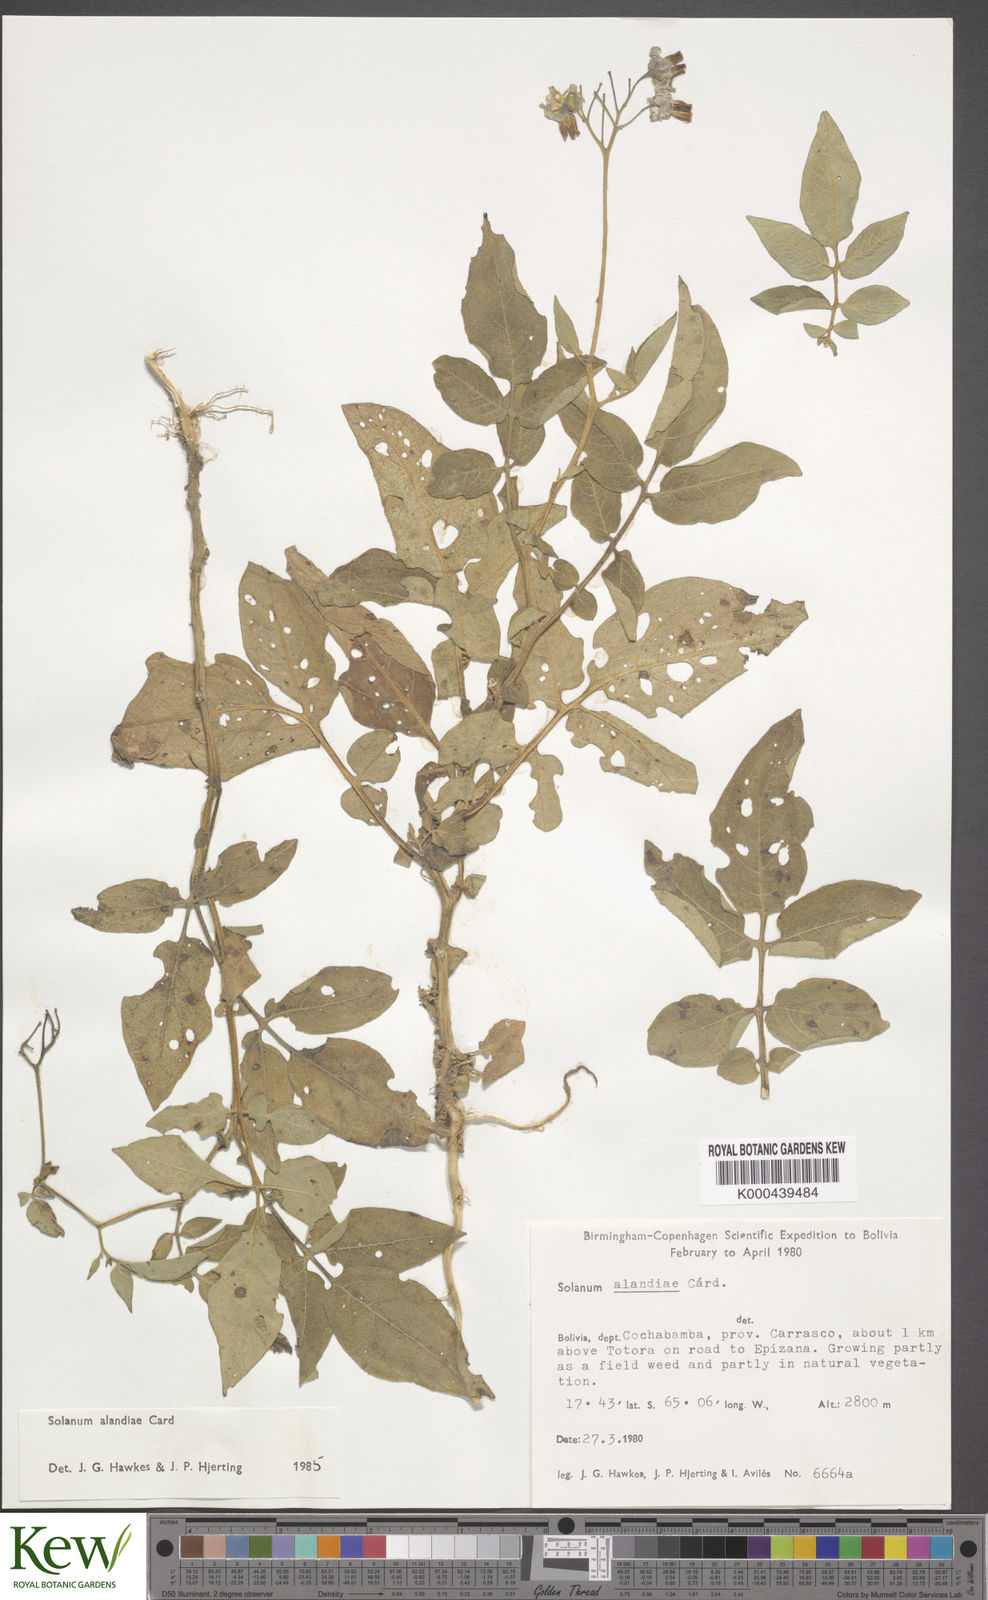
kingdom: Plantae
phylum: Tracheophyta
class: Magnoliopsida
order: Solanales
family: Solanaceae
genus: Solanum
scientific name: Solanum brevicaule
